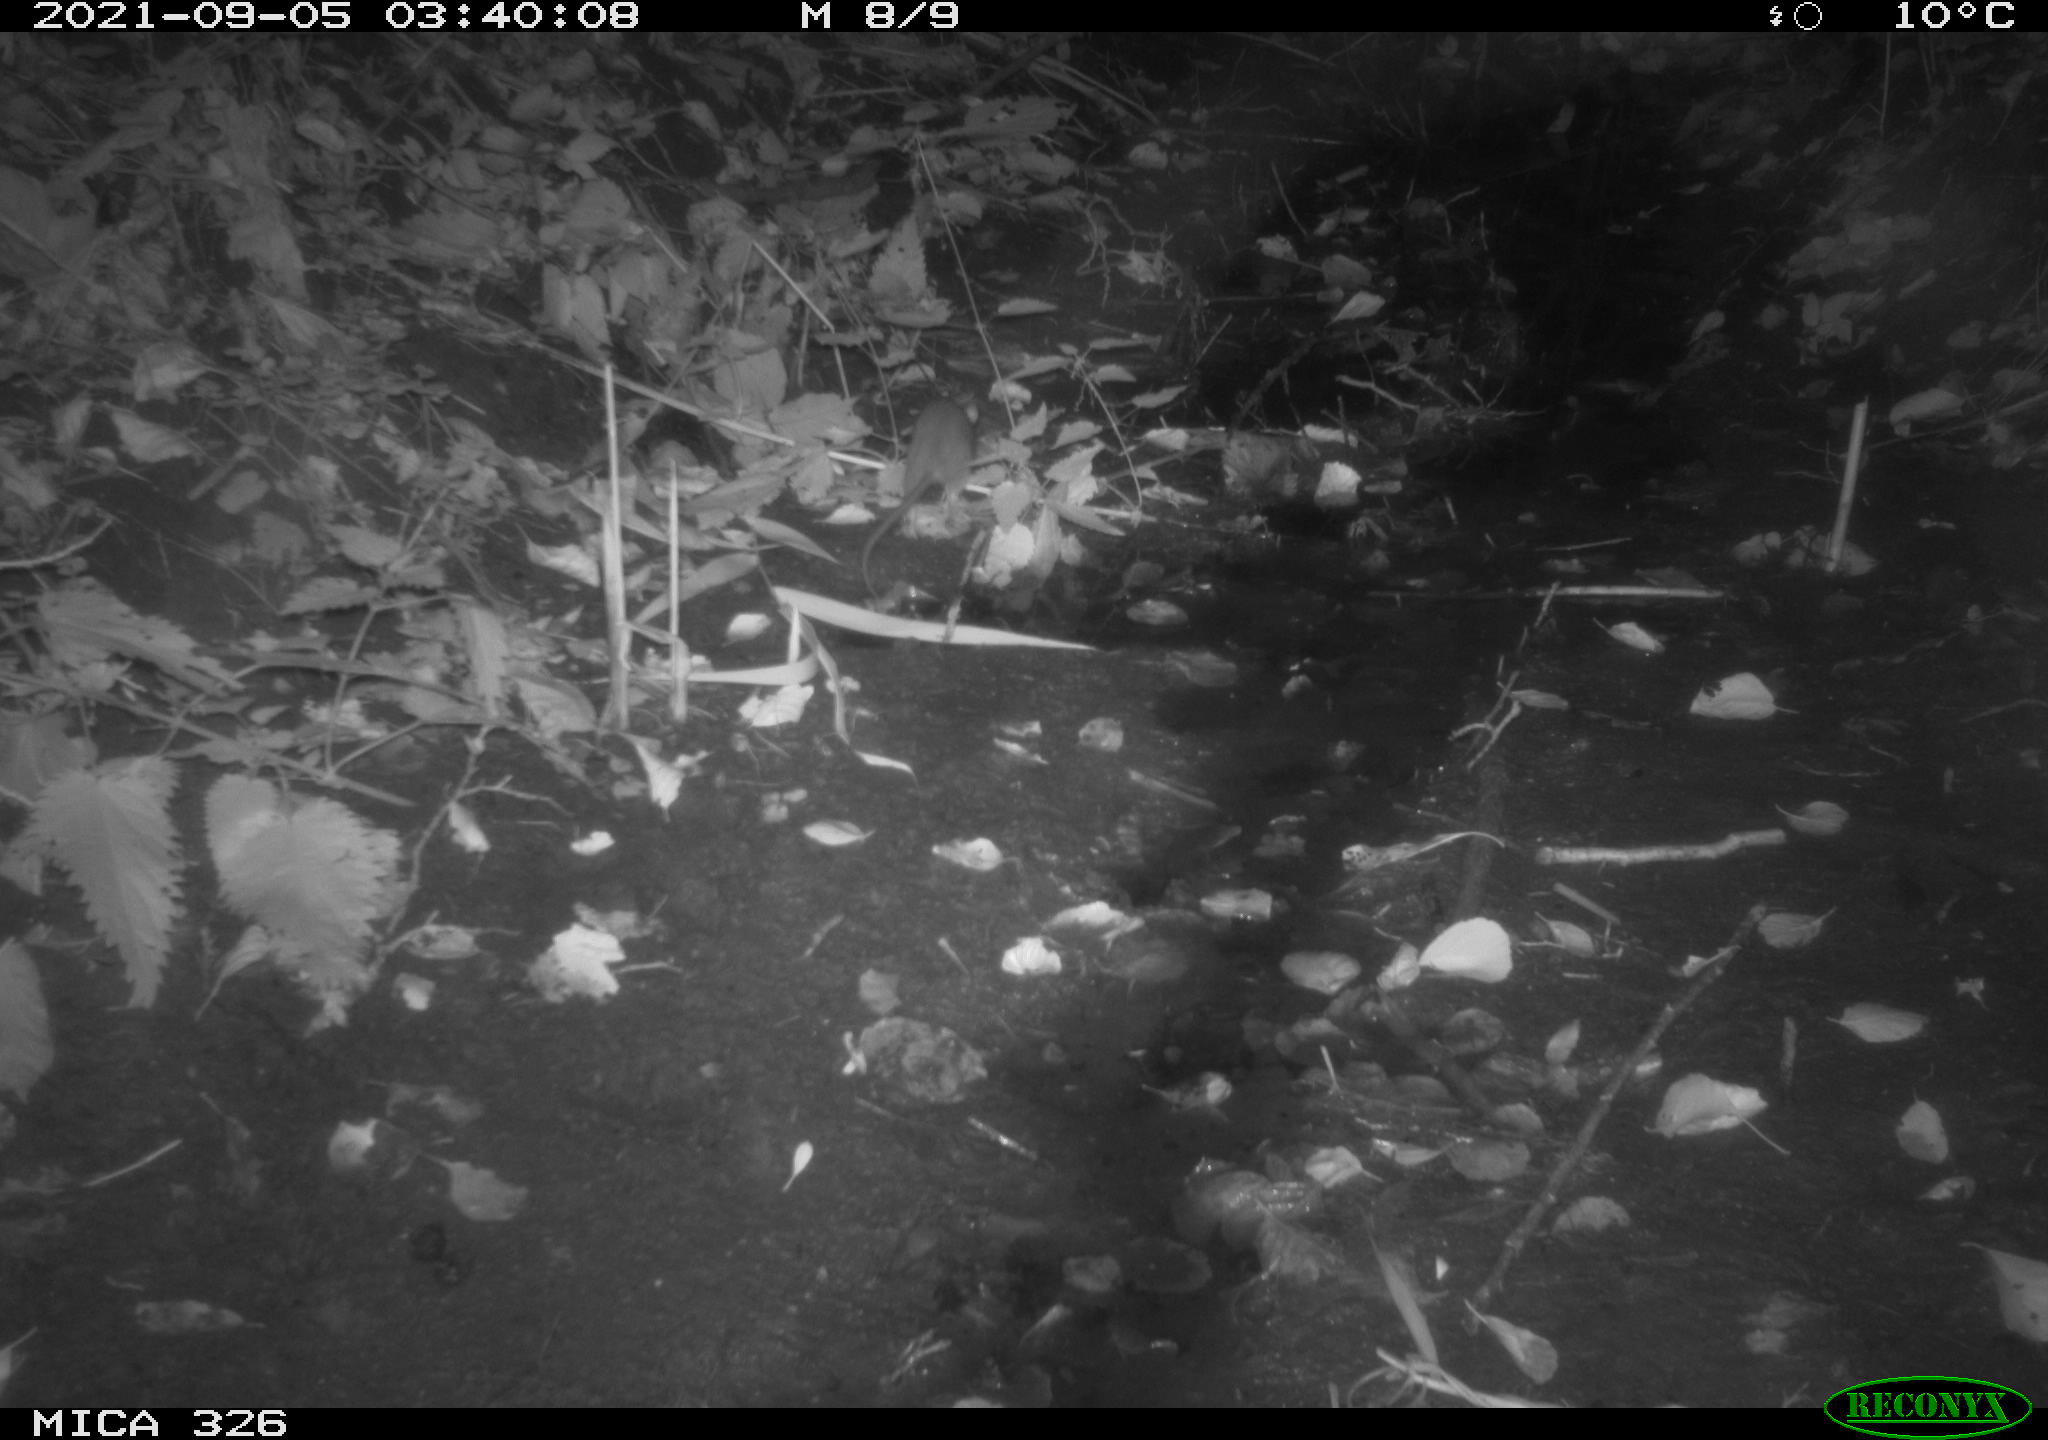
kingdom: Animalia
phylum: Chordata
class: Mammalia
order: Rodentia
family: Muridae
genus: Rattus
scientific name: Rattus norvegicus
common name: Brown rat
